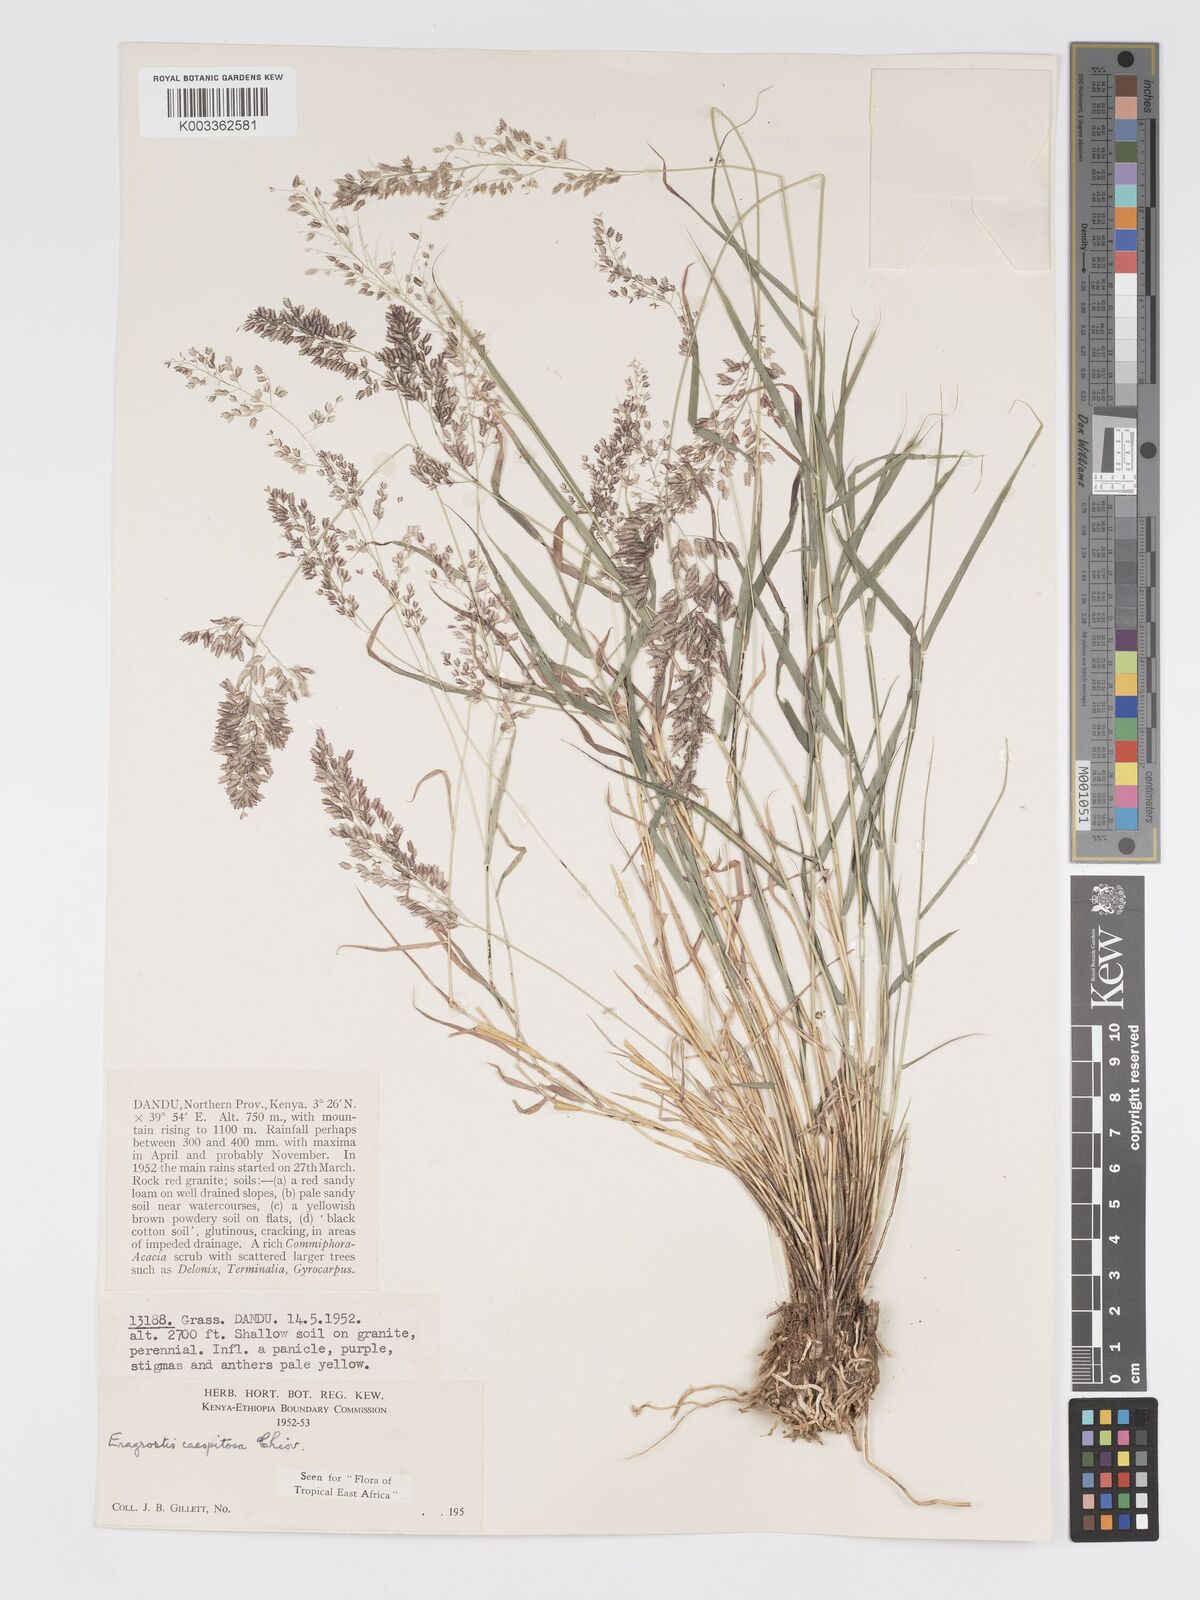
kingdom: Plantae
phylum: Tracheophyta
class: Liliopsida
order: Poales
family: Poaceae
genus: Eragrostis
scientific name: Eragrostis caespitosa
